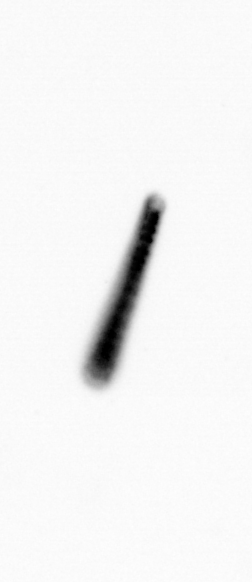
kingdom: Chromista
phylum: Ochrophyta
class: Bacillariophyceae
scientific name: Bacillariophyceae
